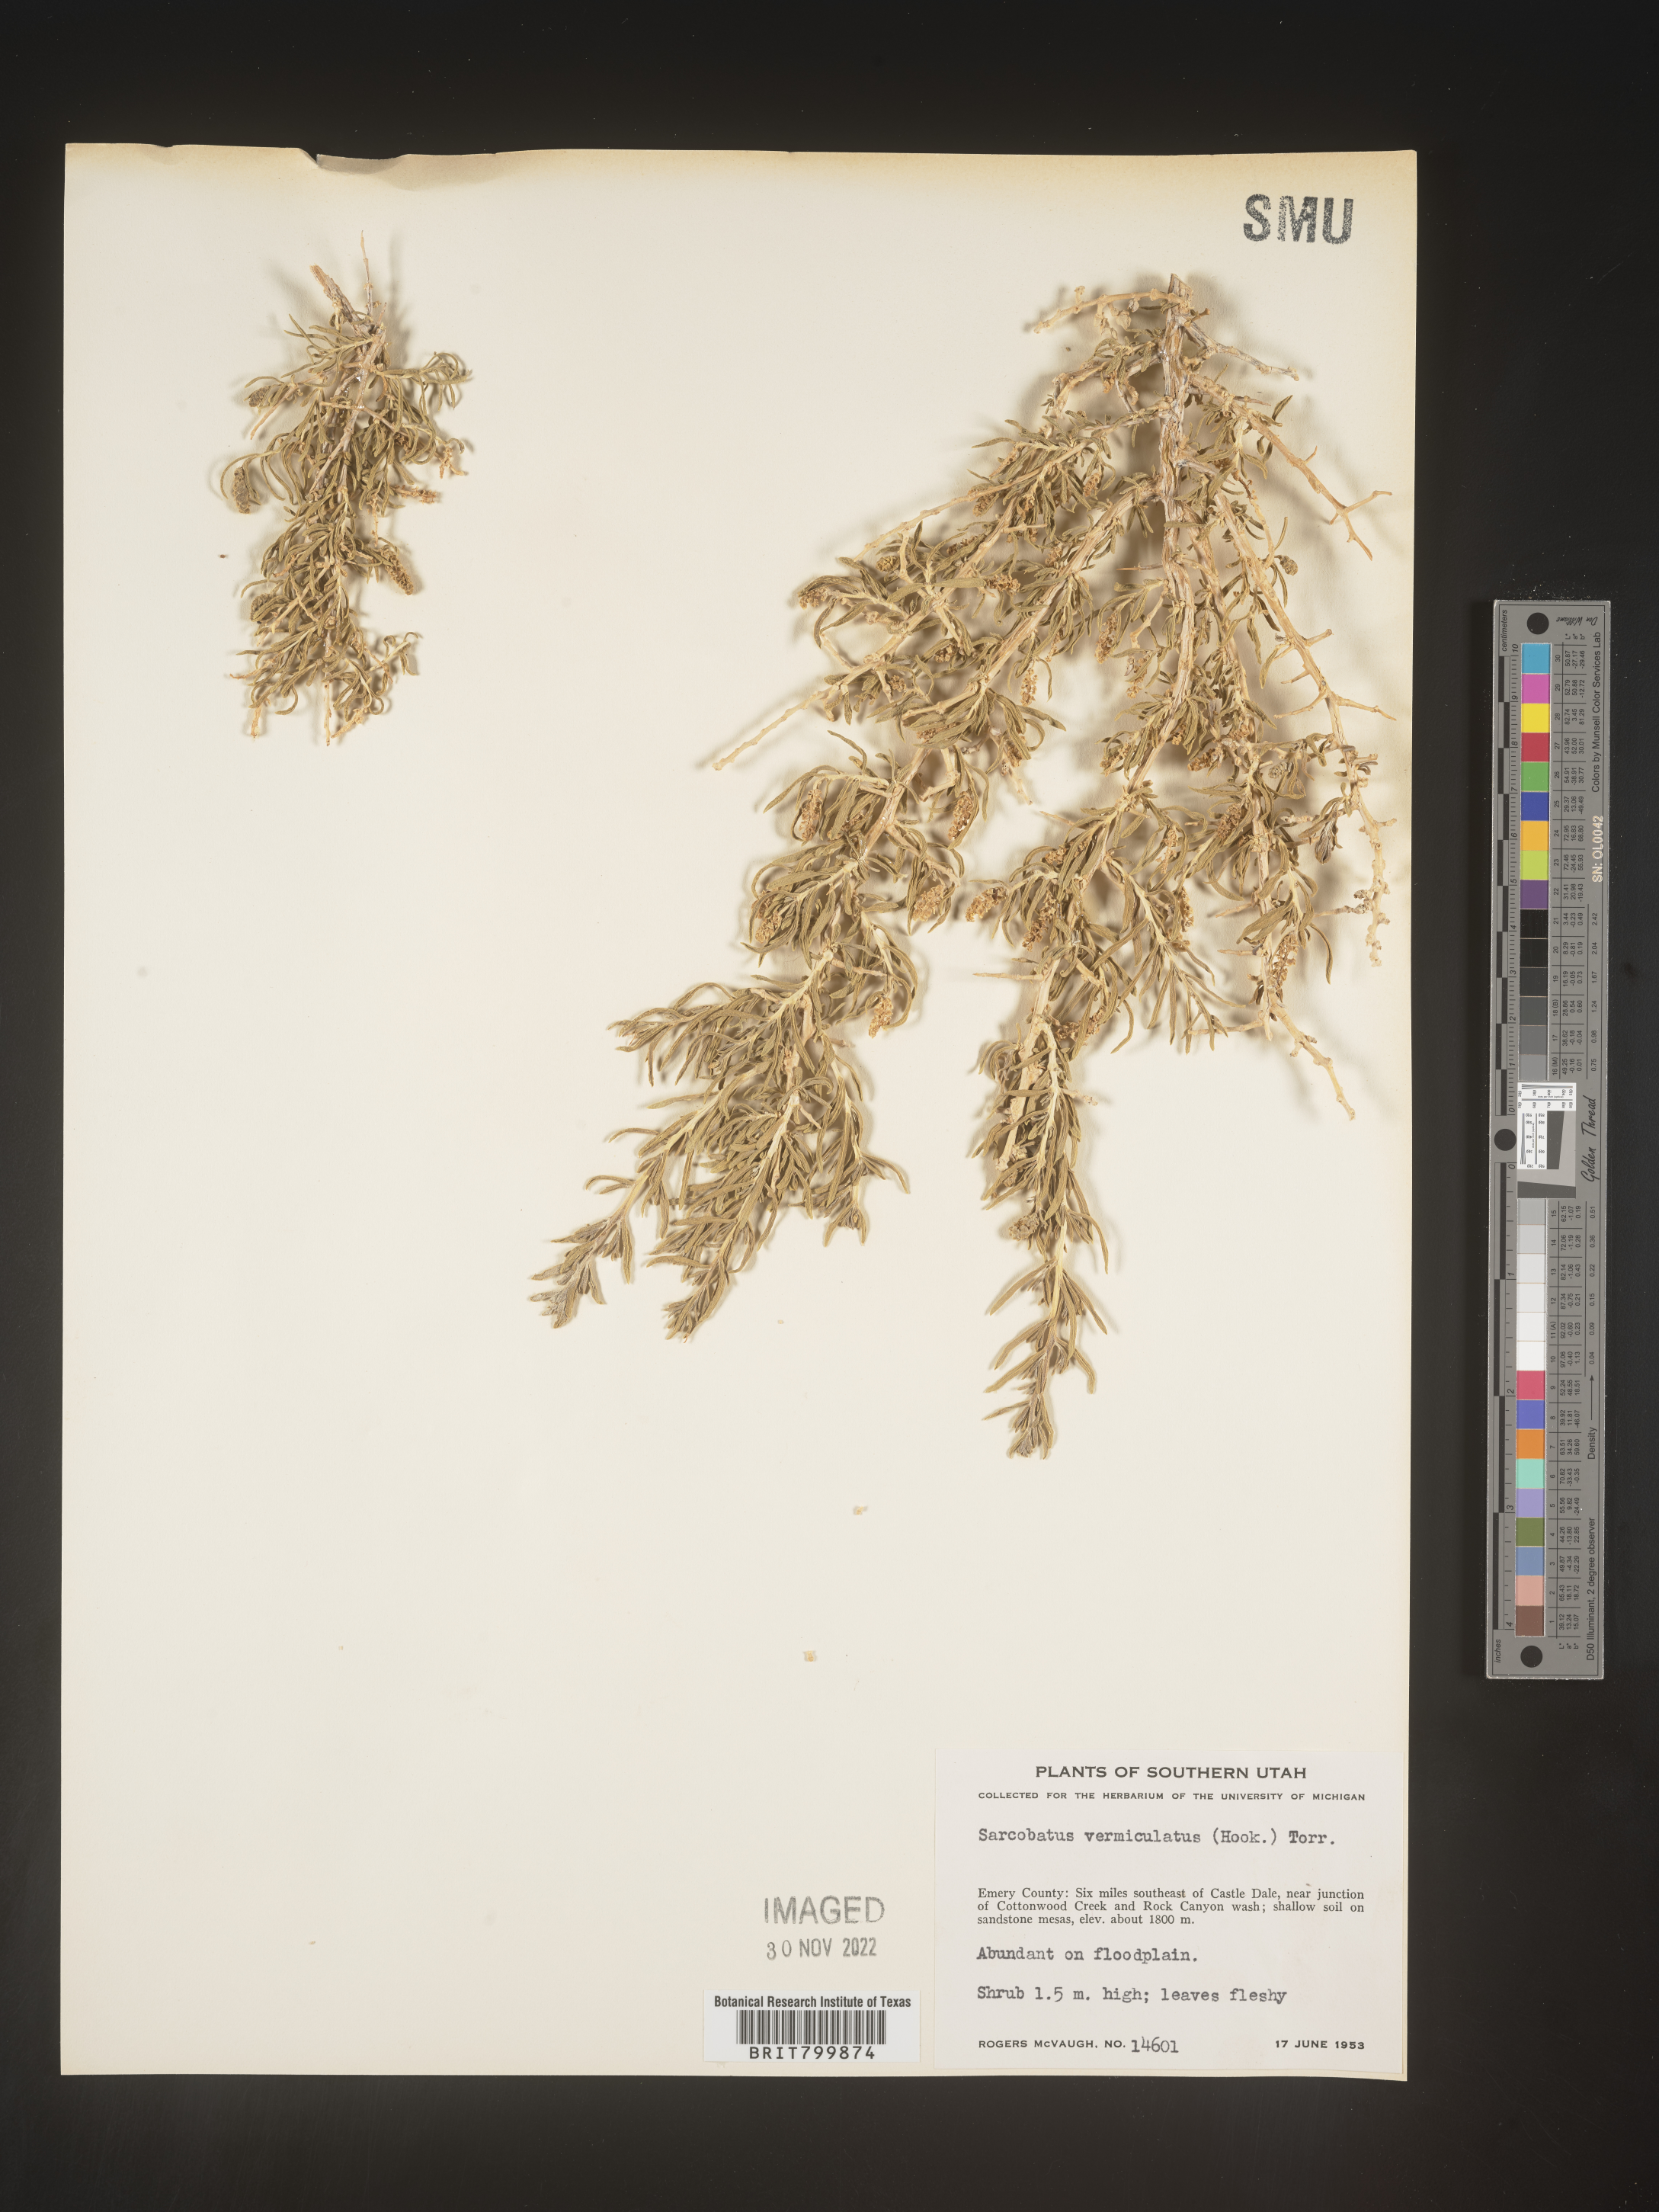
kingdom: Plantae
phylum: Tracheophyta
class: Magnoliopsida
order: Caryophyllales
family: Sarcobataceae
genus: Sarcobatus
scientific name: Sarcobatus vermiculatus
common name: Greasewood
